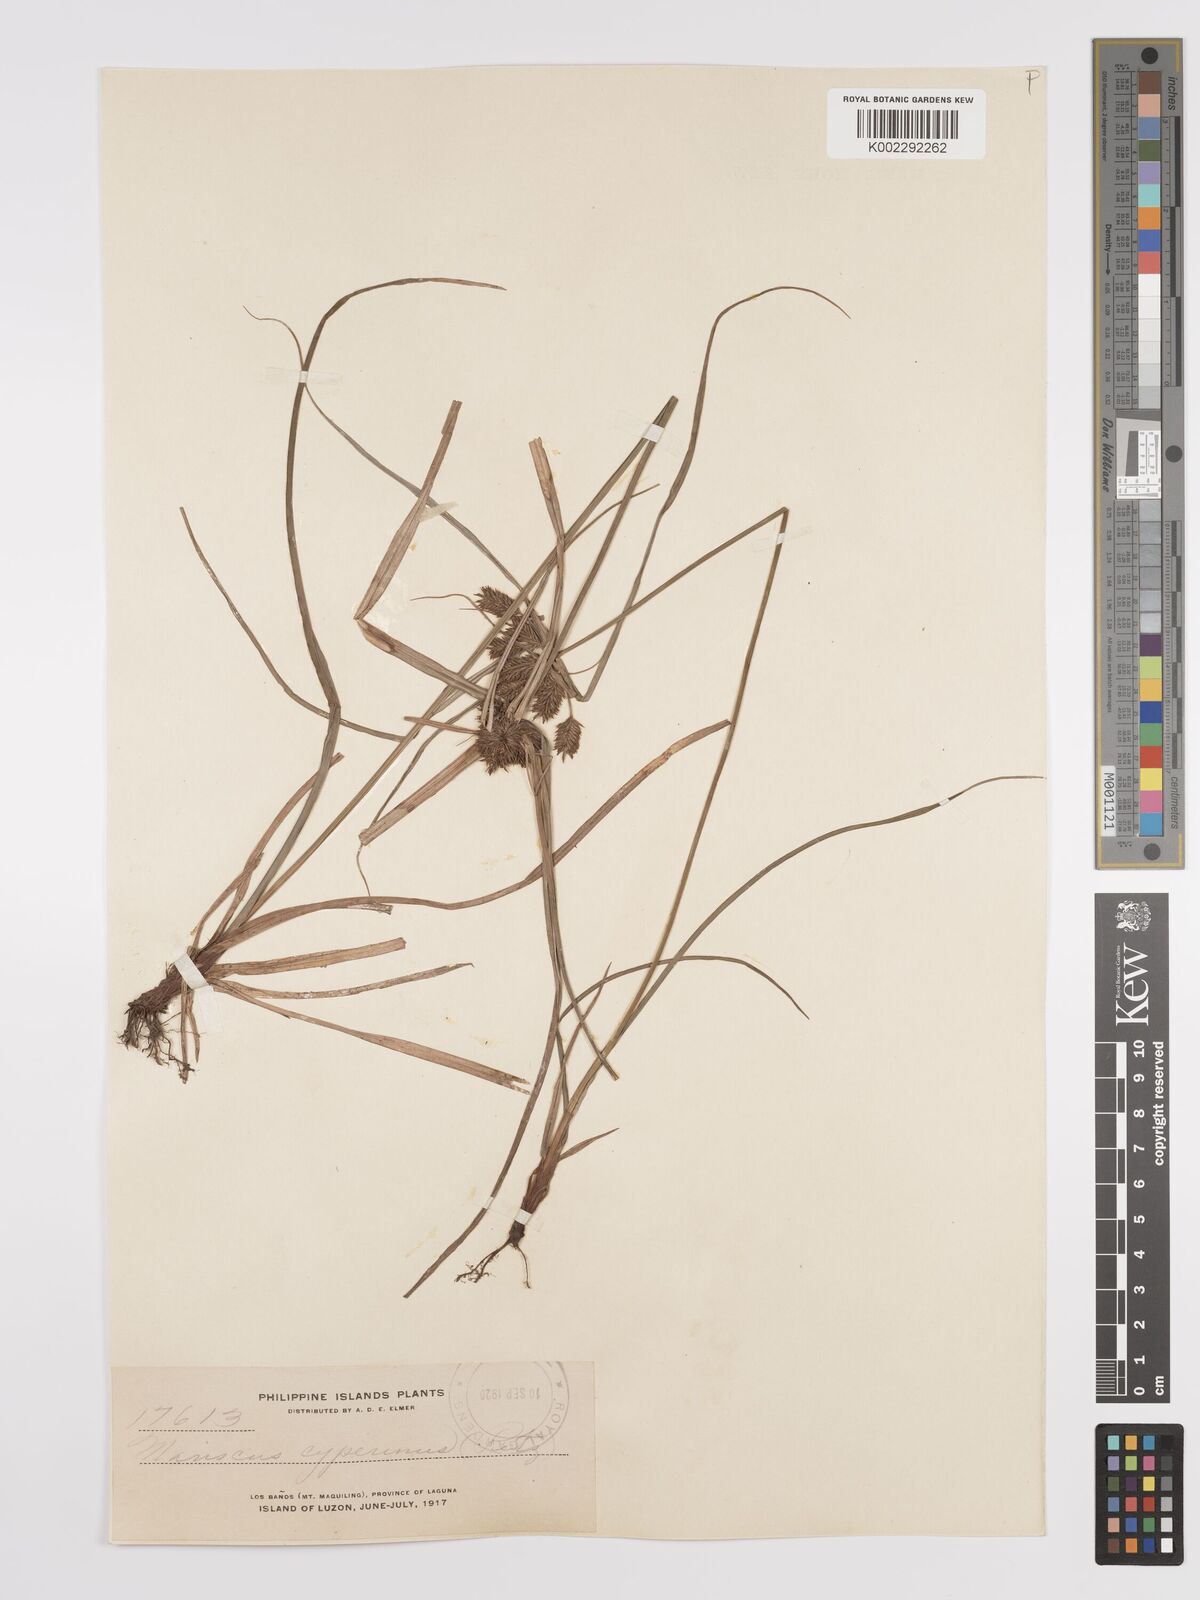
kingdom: Plantae
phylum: Tracheophyta
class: Liliopsida
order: Poales
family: Cyperaceae
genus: Cyperus
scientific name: Cyperus cyperinus
